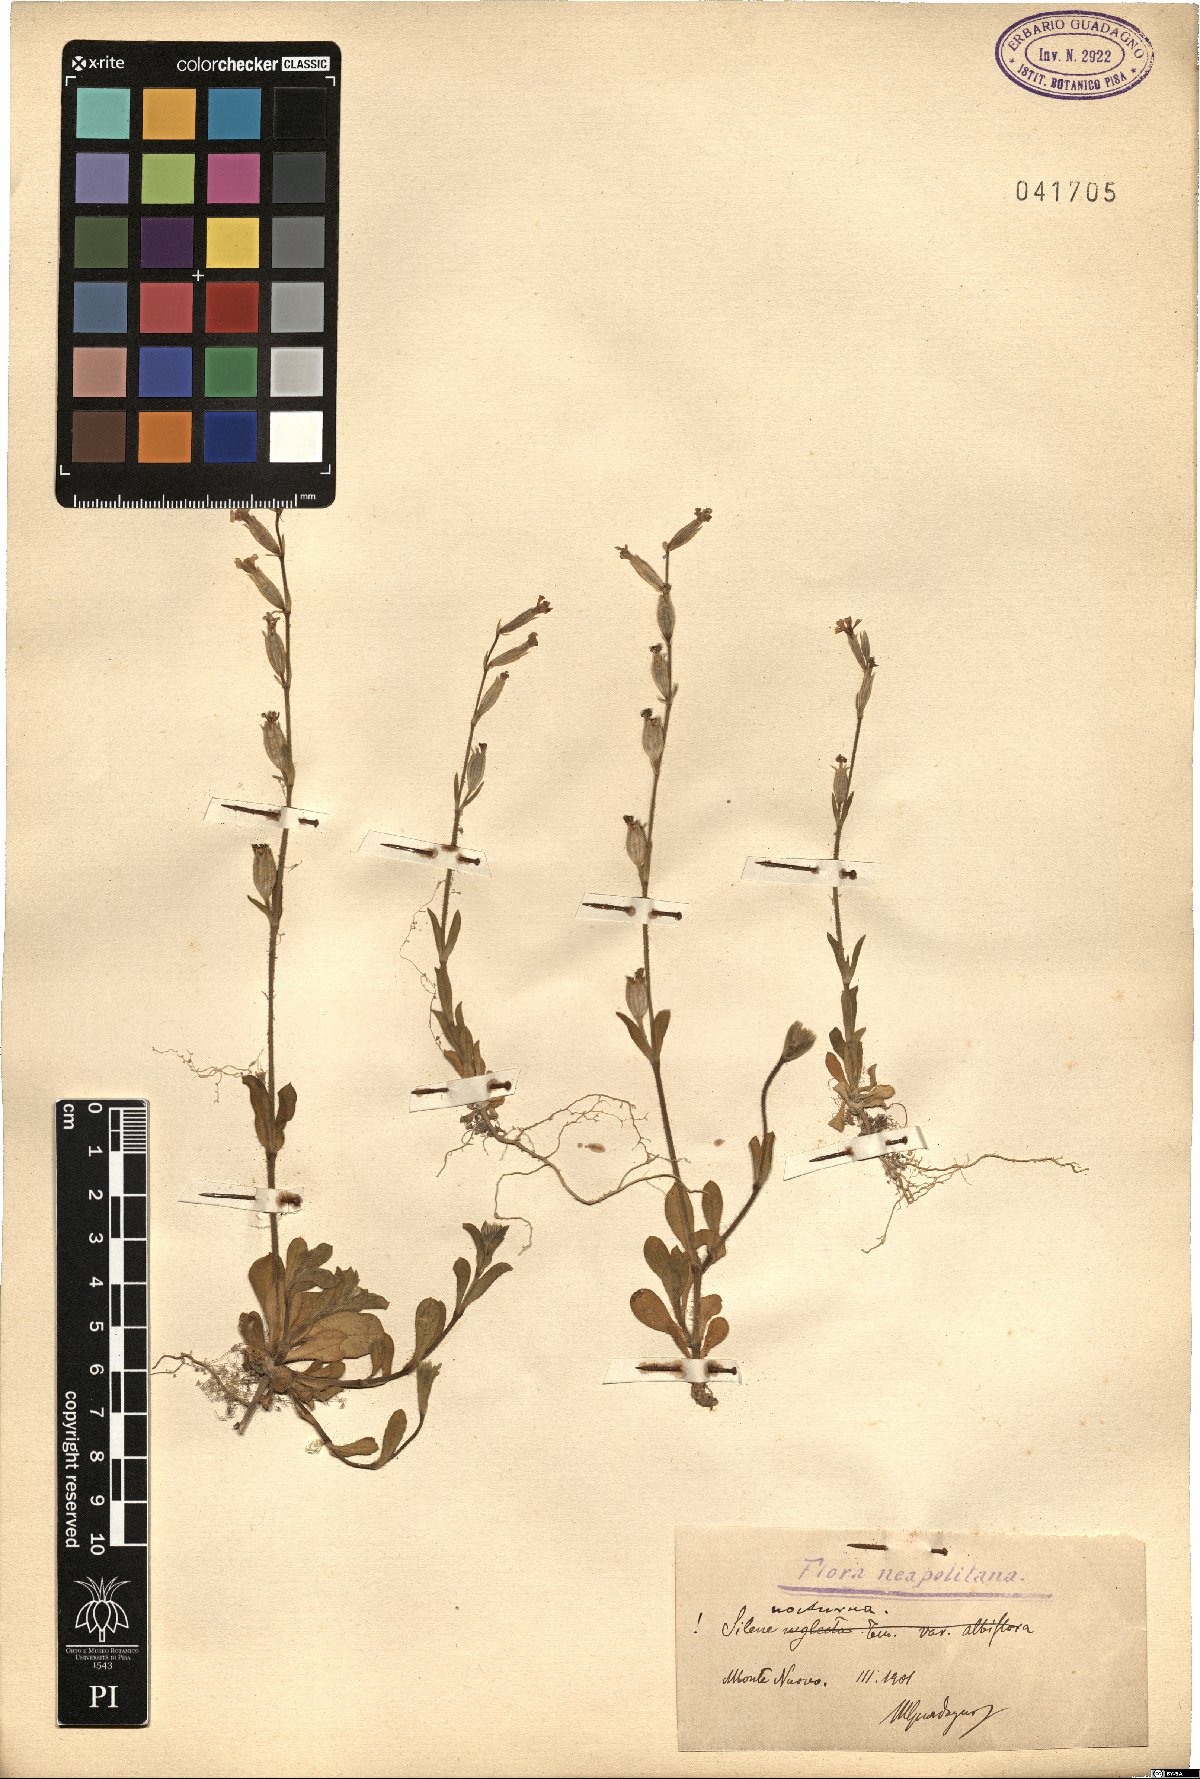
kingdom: Plantae
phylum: Tracheophyta
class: Magnoliopsida
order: Caryophyllales
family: Caryophyllaceae
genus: Silene
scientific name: Silene nocturna
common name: Mediterranean catchfly
